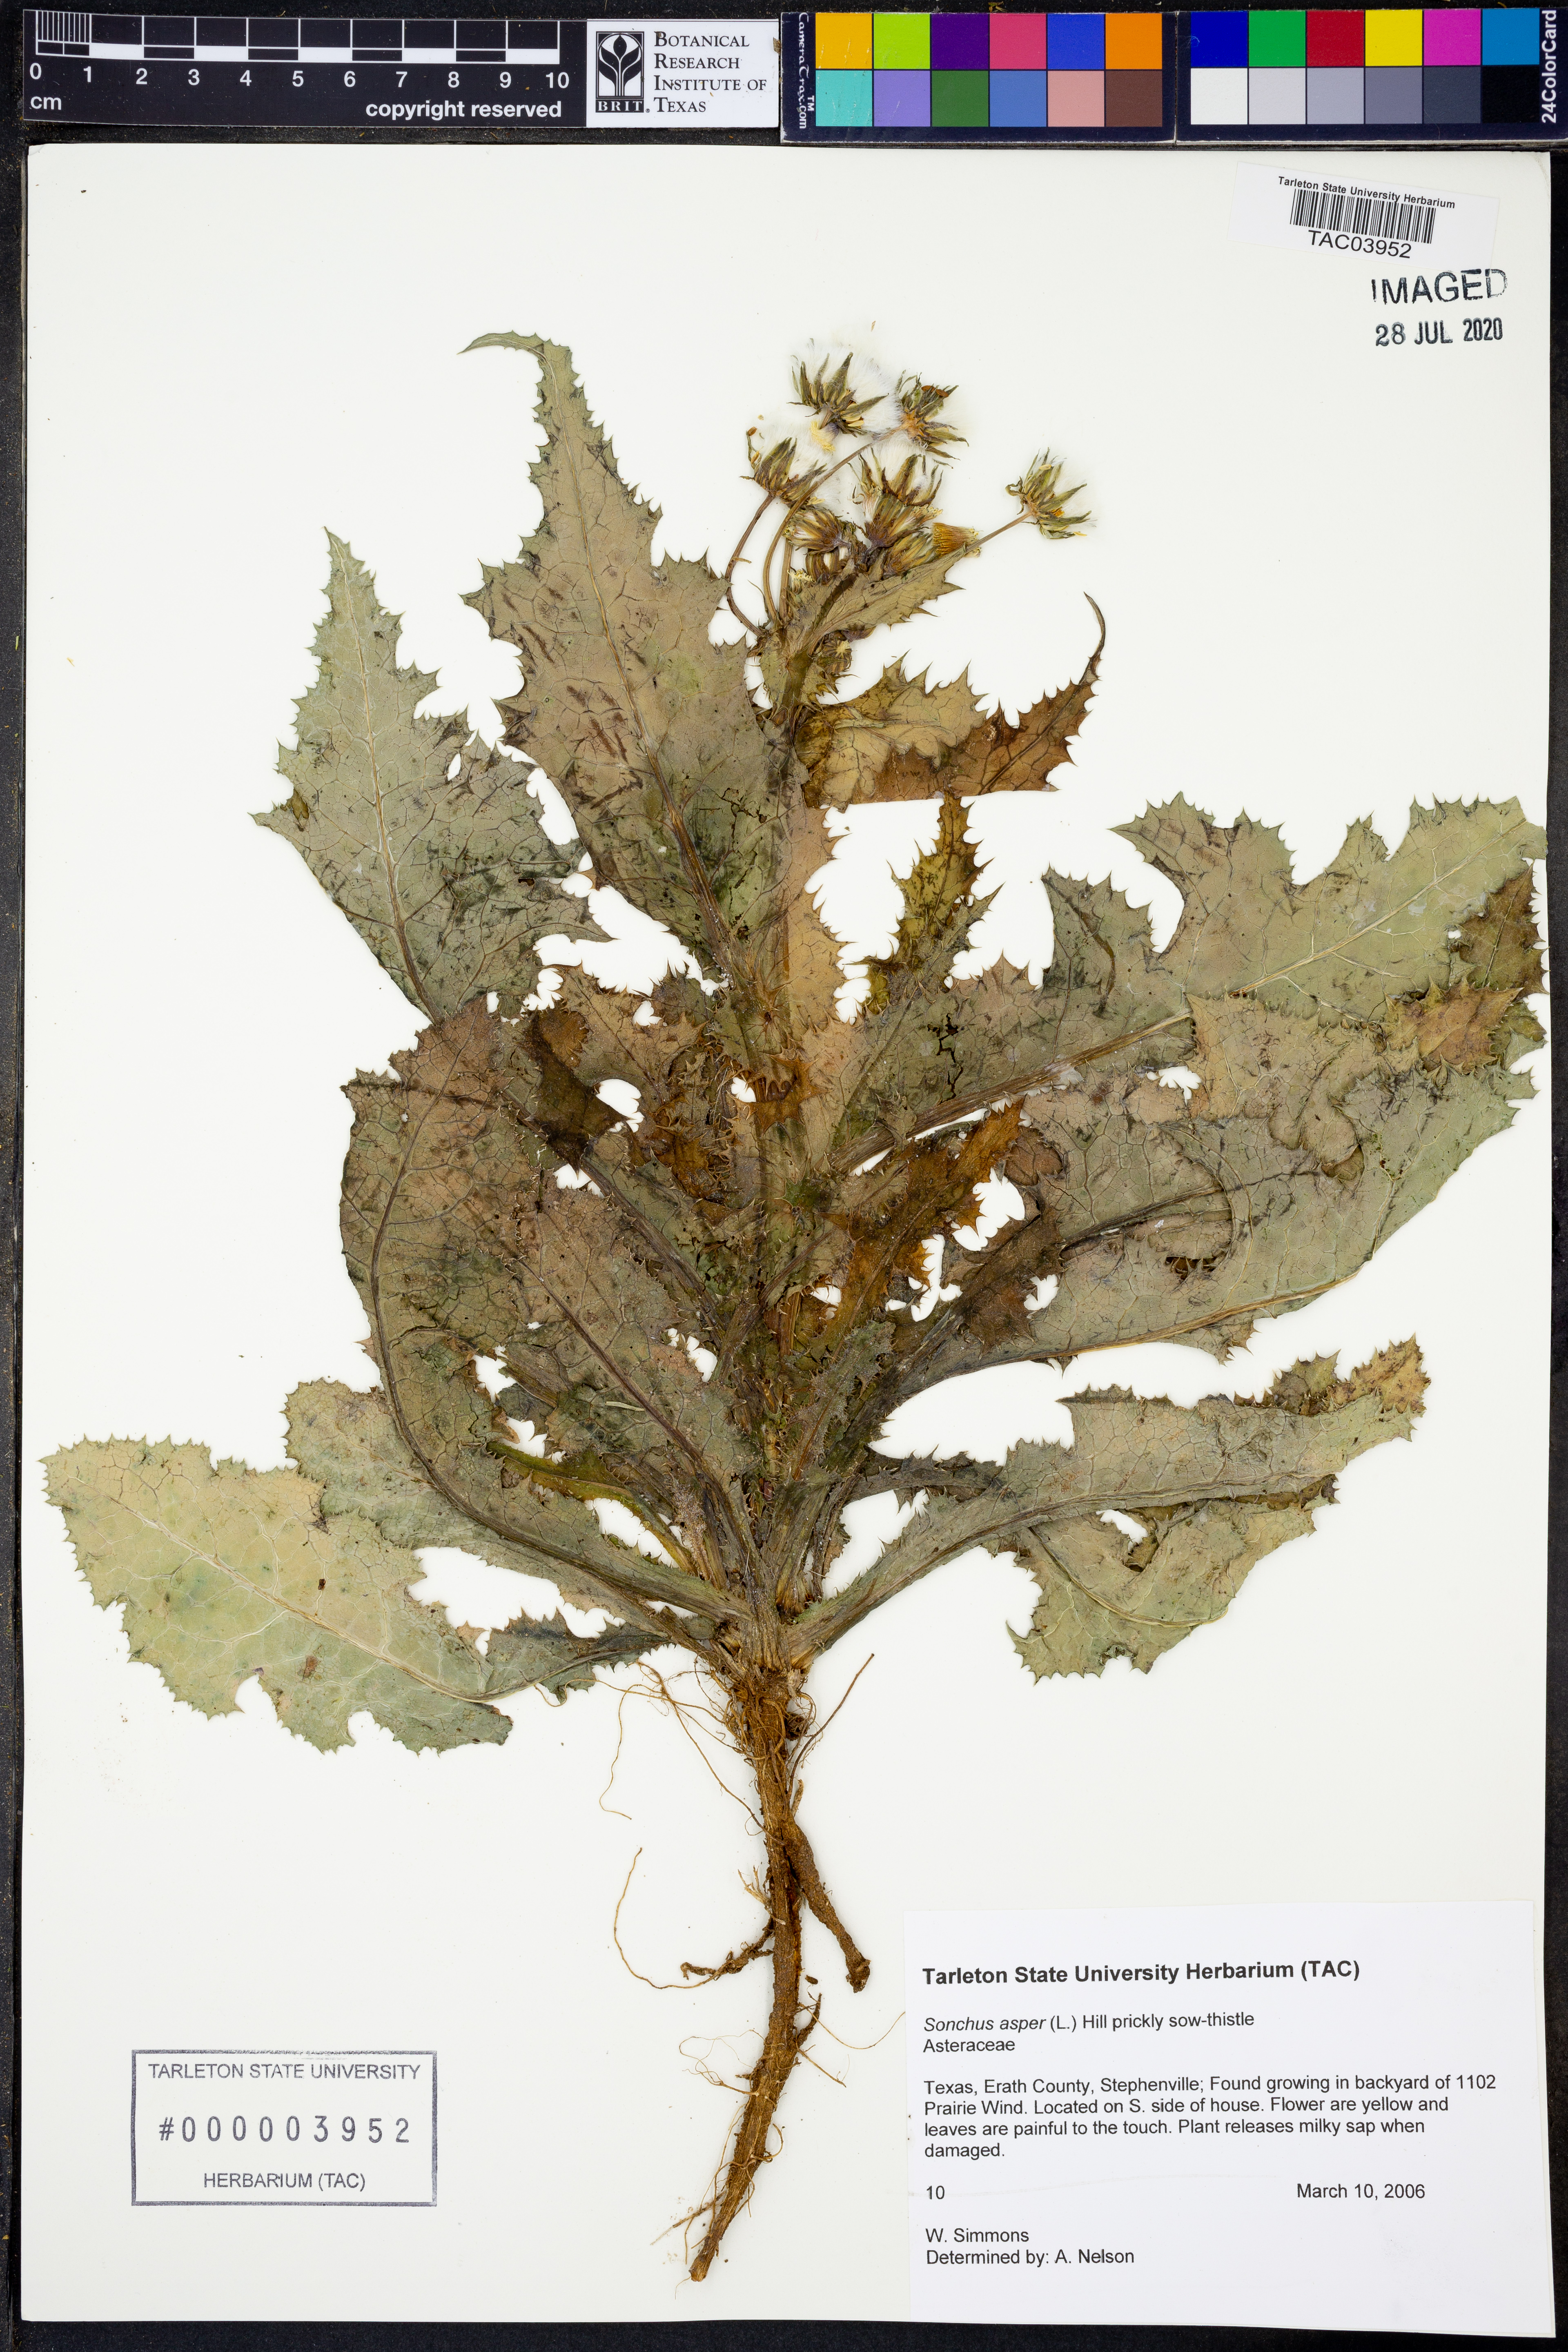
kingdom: Plantae
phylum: Tracheophyta
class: Magnoliopsida
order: Asterales
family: Asteraceae
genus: Sonchus
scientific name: Sonchus asper
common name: Prickly sow-thistle
